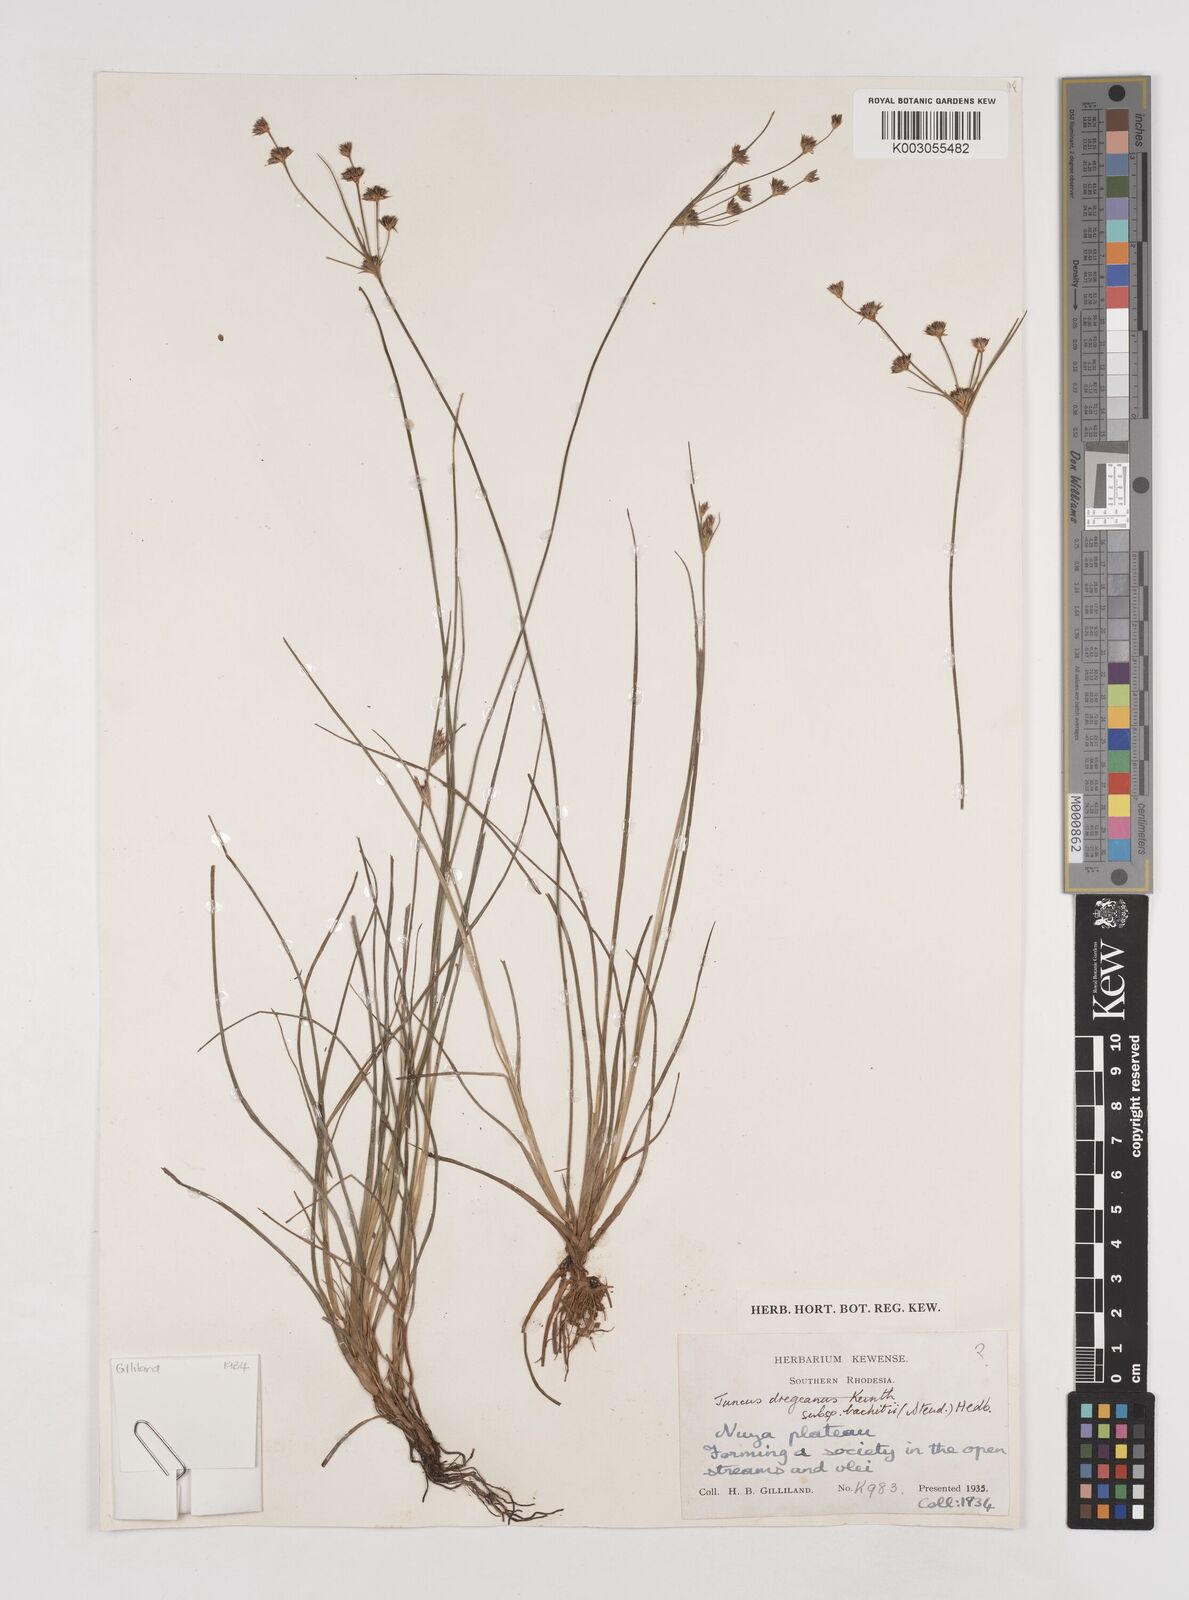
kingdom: Plantae
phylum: Tracheophyta
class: Liliopsida
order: Poales
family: Juncaceae
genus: Juncus
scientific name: Juncus dregeanus
